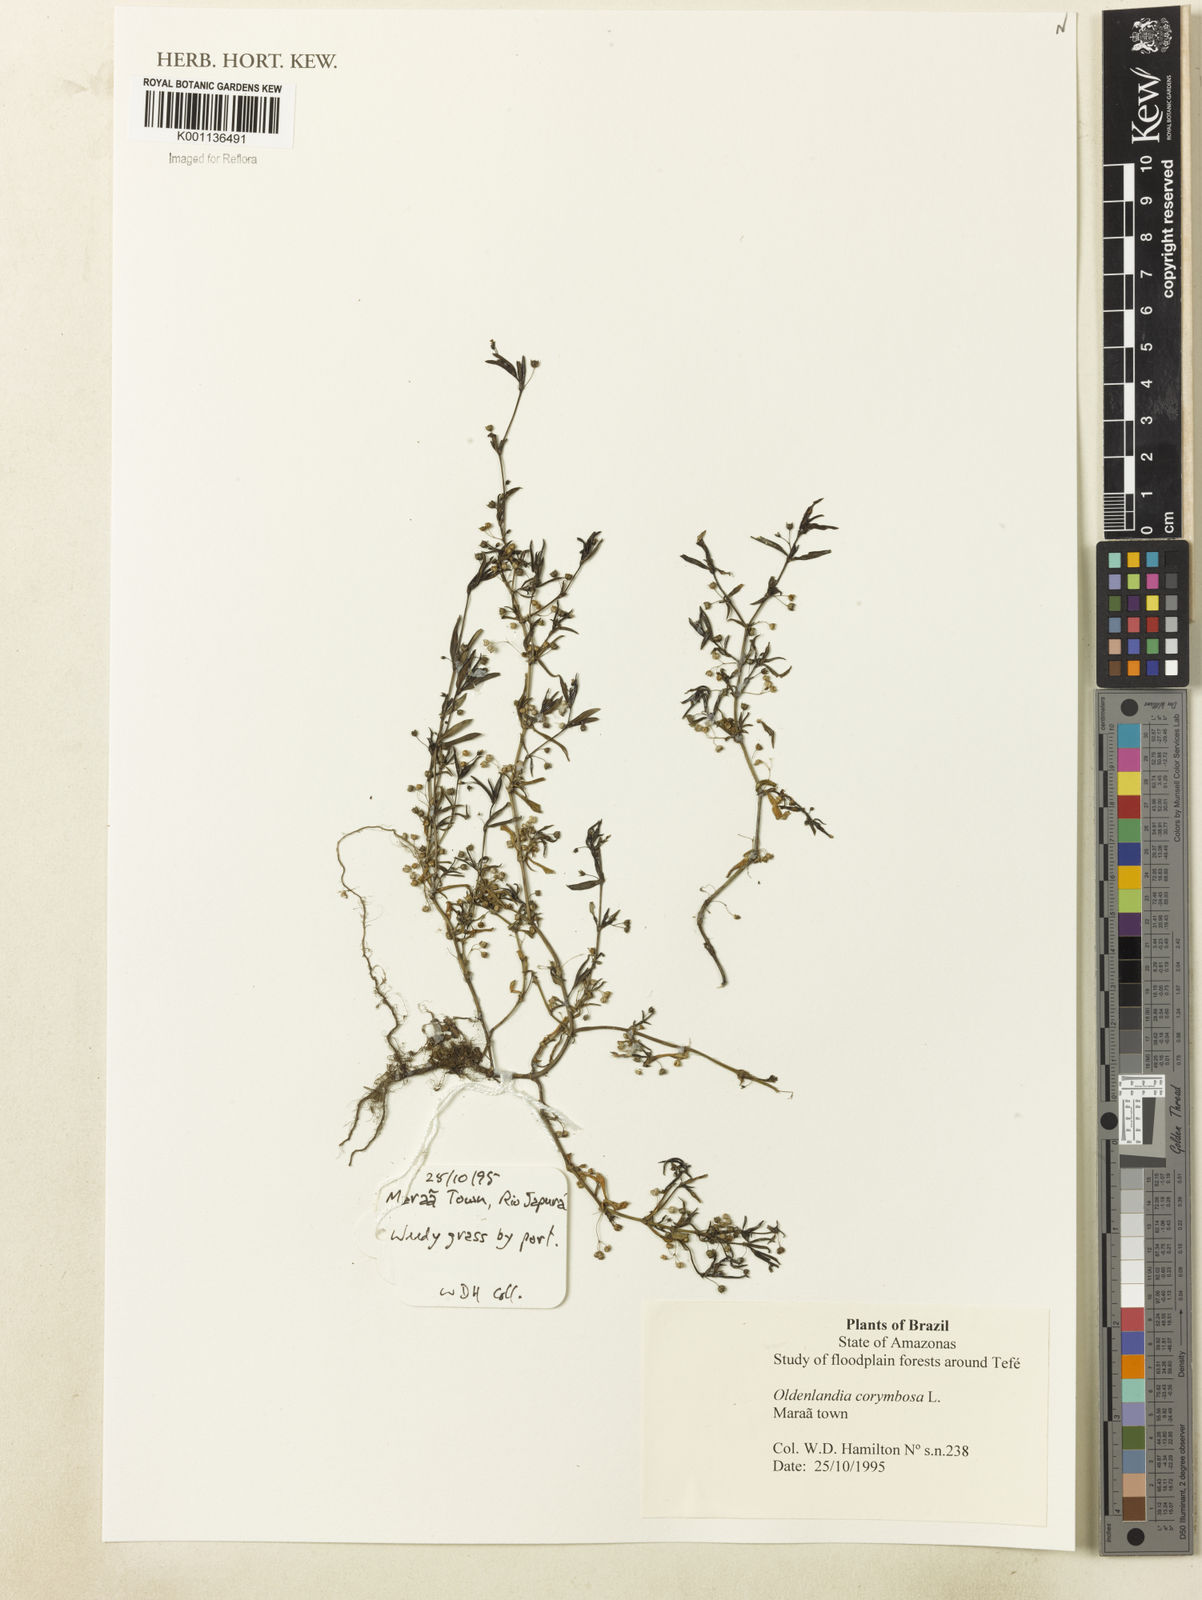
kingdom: Plantae
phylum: Tracheophyta
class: Magnoliopsida
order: Gentianales
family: Rubiaceae
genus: Oldenlandia
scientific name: Oldenlandia corymbosa
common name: Flat-top mille graines
